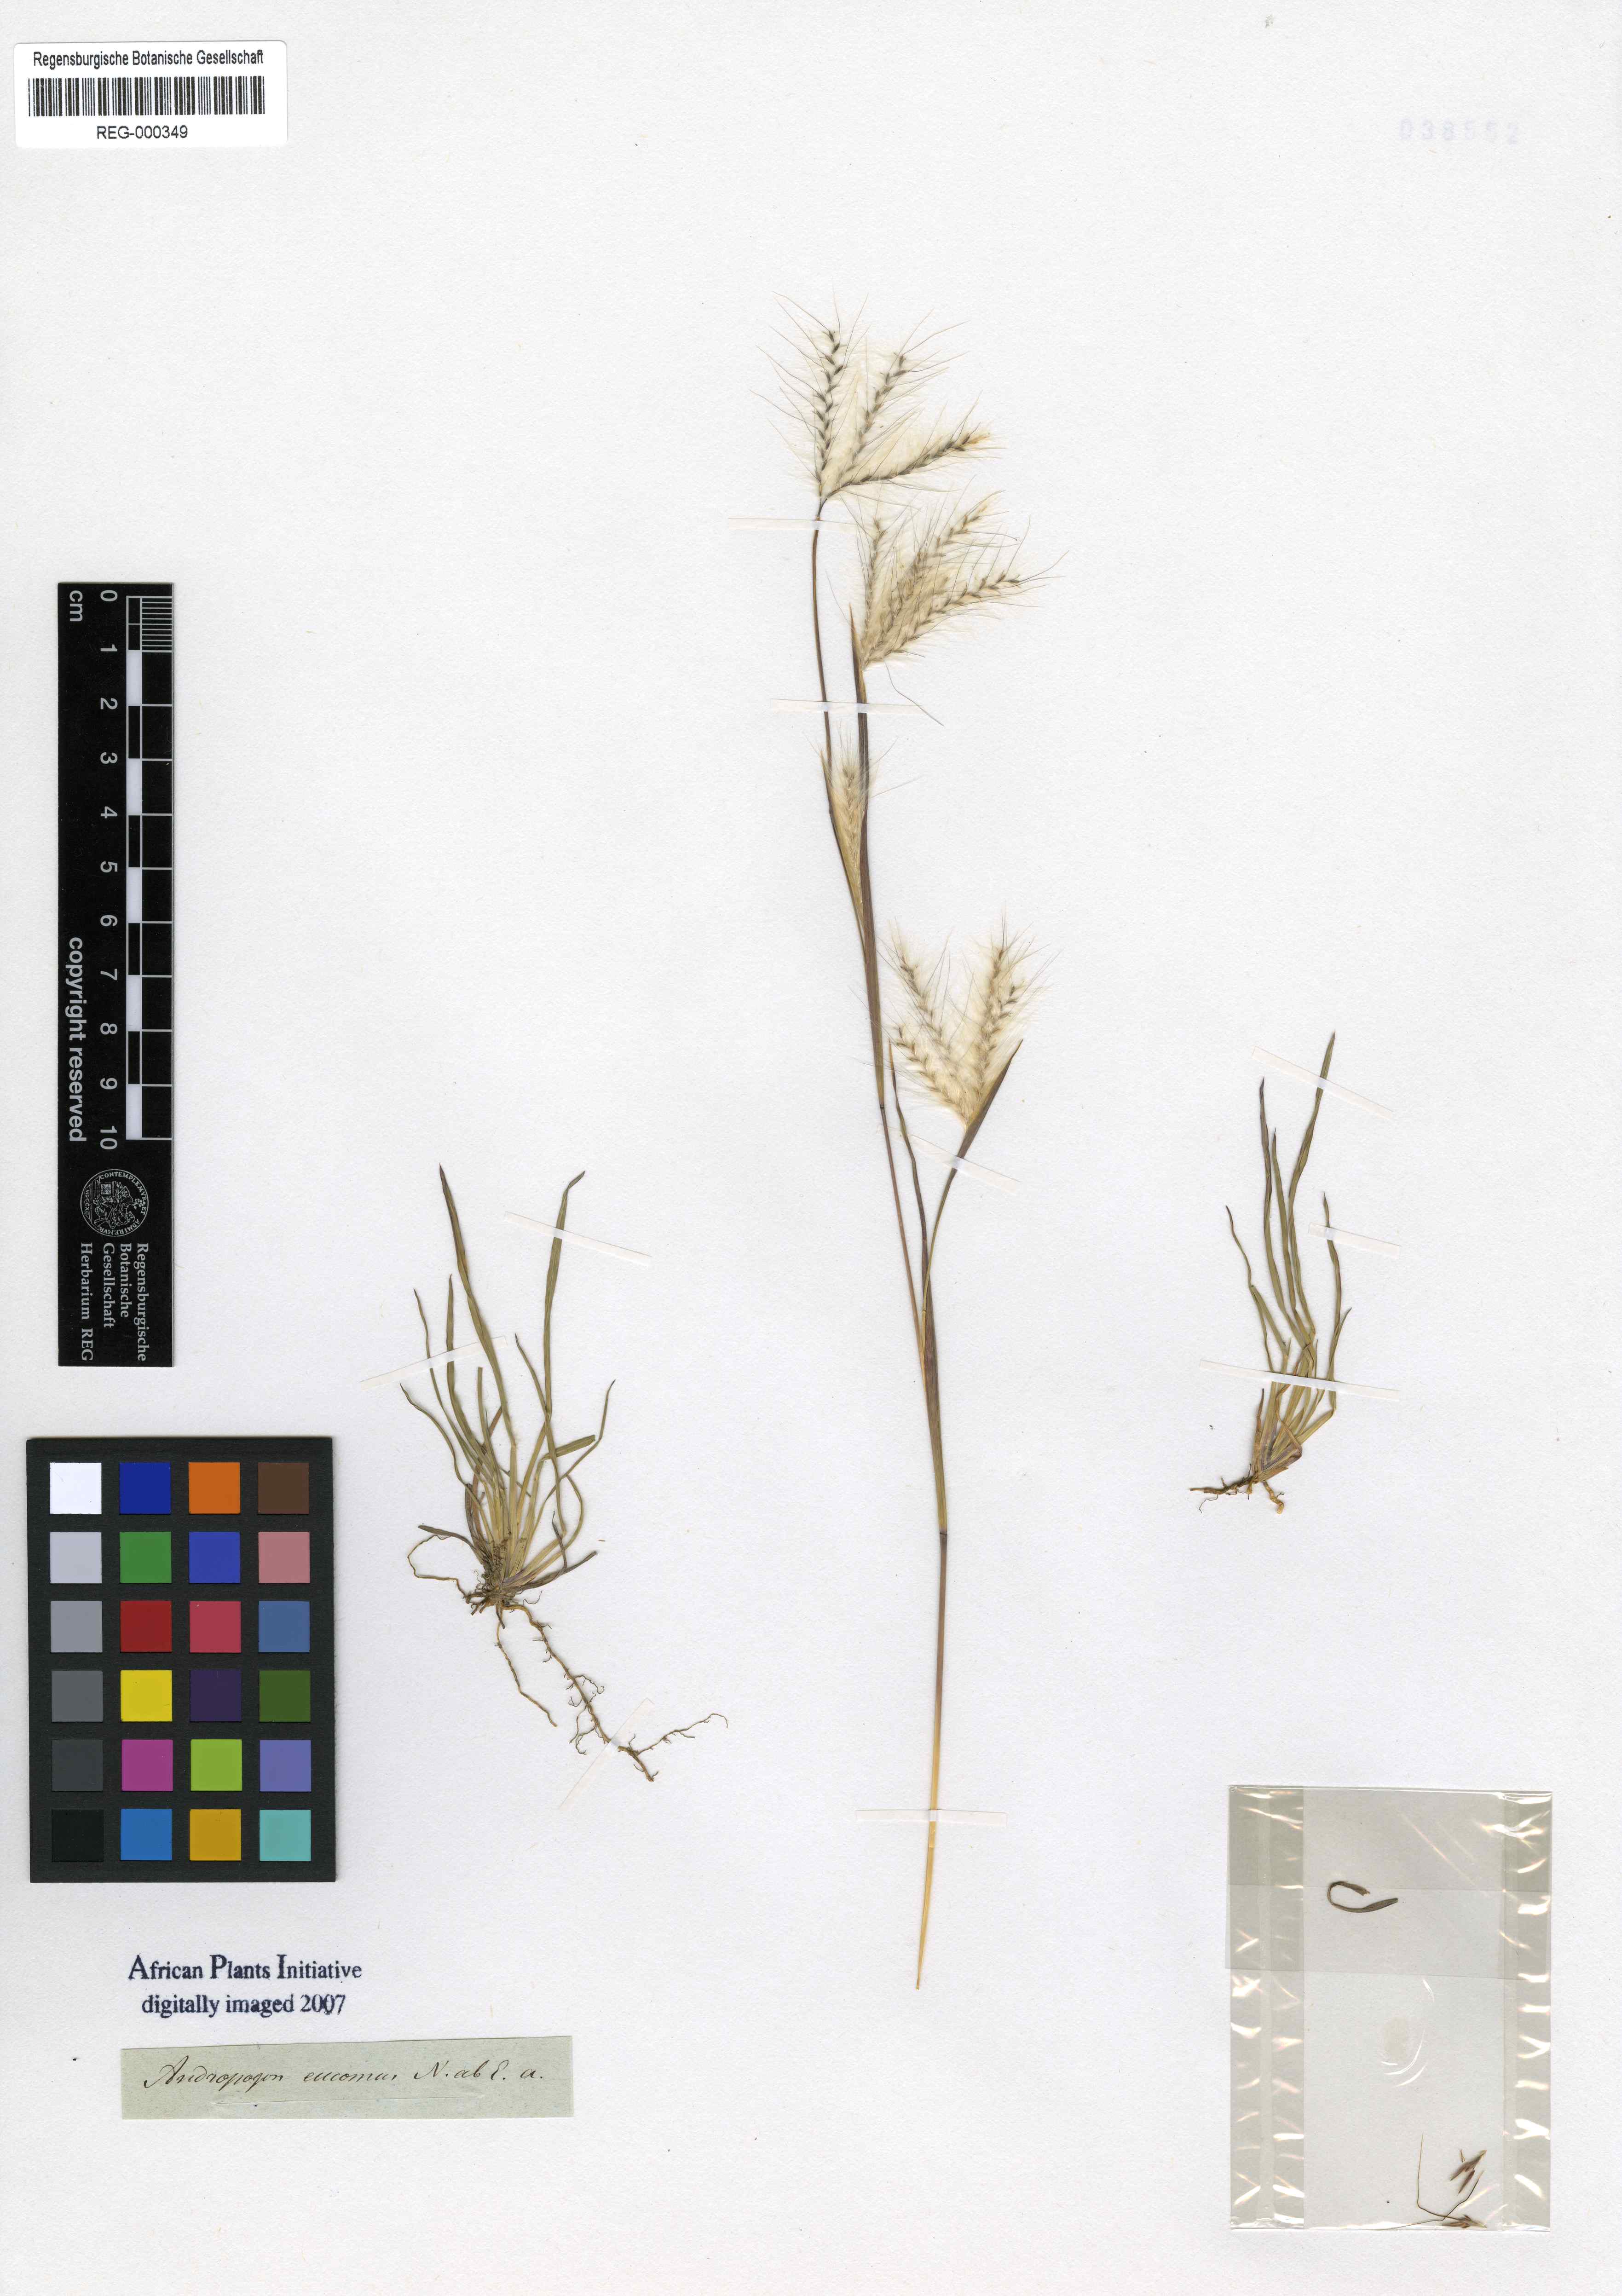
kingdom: Plantae
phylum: Tracheophyta
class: Liliopsida
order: Poales
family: Poaceae
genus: Andropogon
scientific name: Andropogon eucomus
